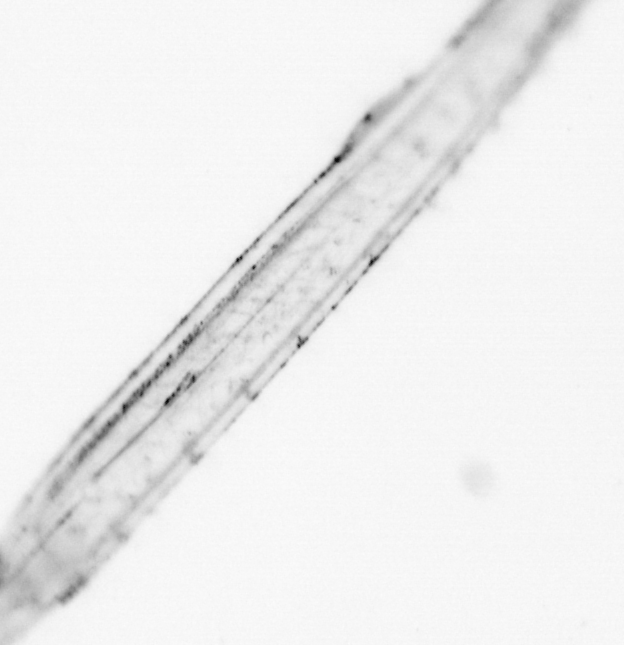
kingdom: Animalia
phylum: Chaetognatha
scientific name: Chaetognatha
